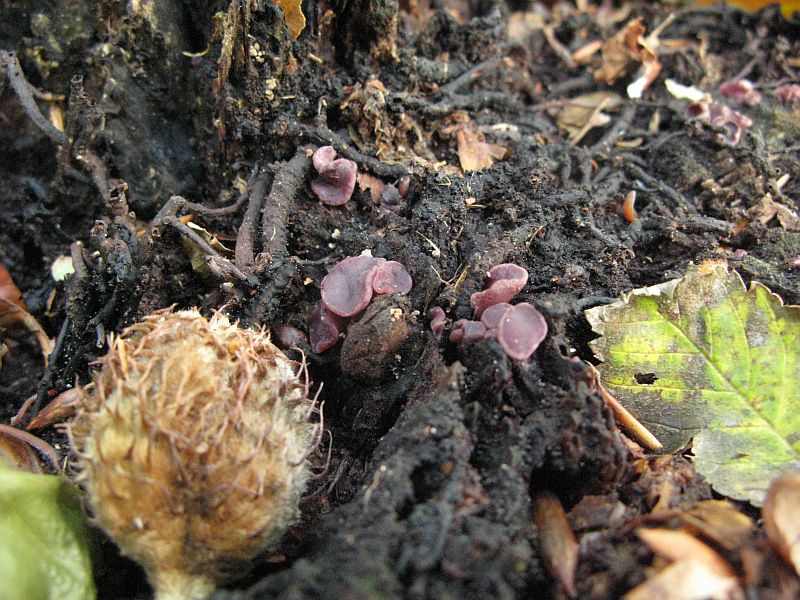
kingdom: Fungi
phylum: Ascomycota
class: Leotiomycetes
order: Helotiales
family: Gelatinodiscaceae
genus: Ascocoryne
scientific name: Ascocoryne cylichnium
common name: stor sejskive
